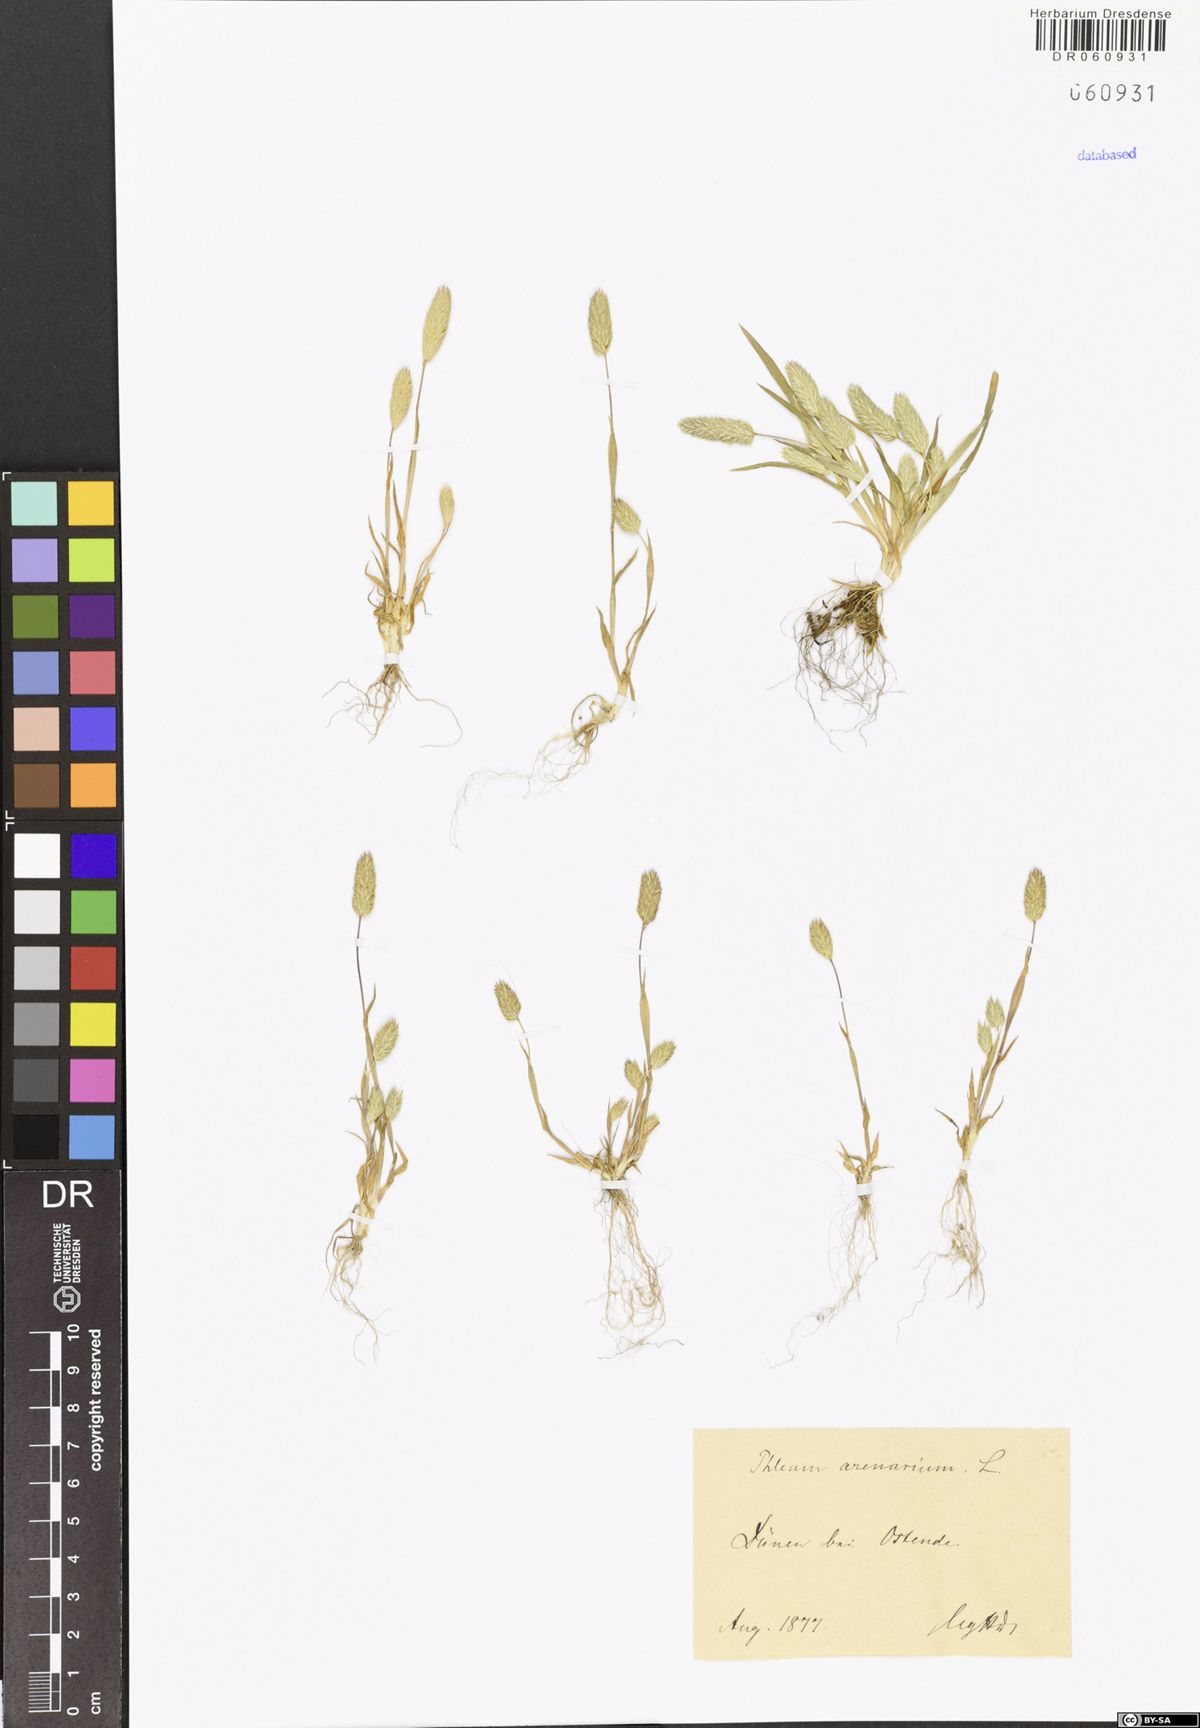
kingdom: Plantae
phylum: Tracheophyta
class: Liliopsida
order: Poales
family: Poaceae
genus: Phleum
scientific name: Phleum arenarium
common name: Sand cat's-tail
